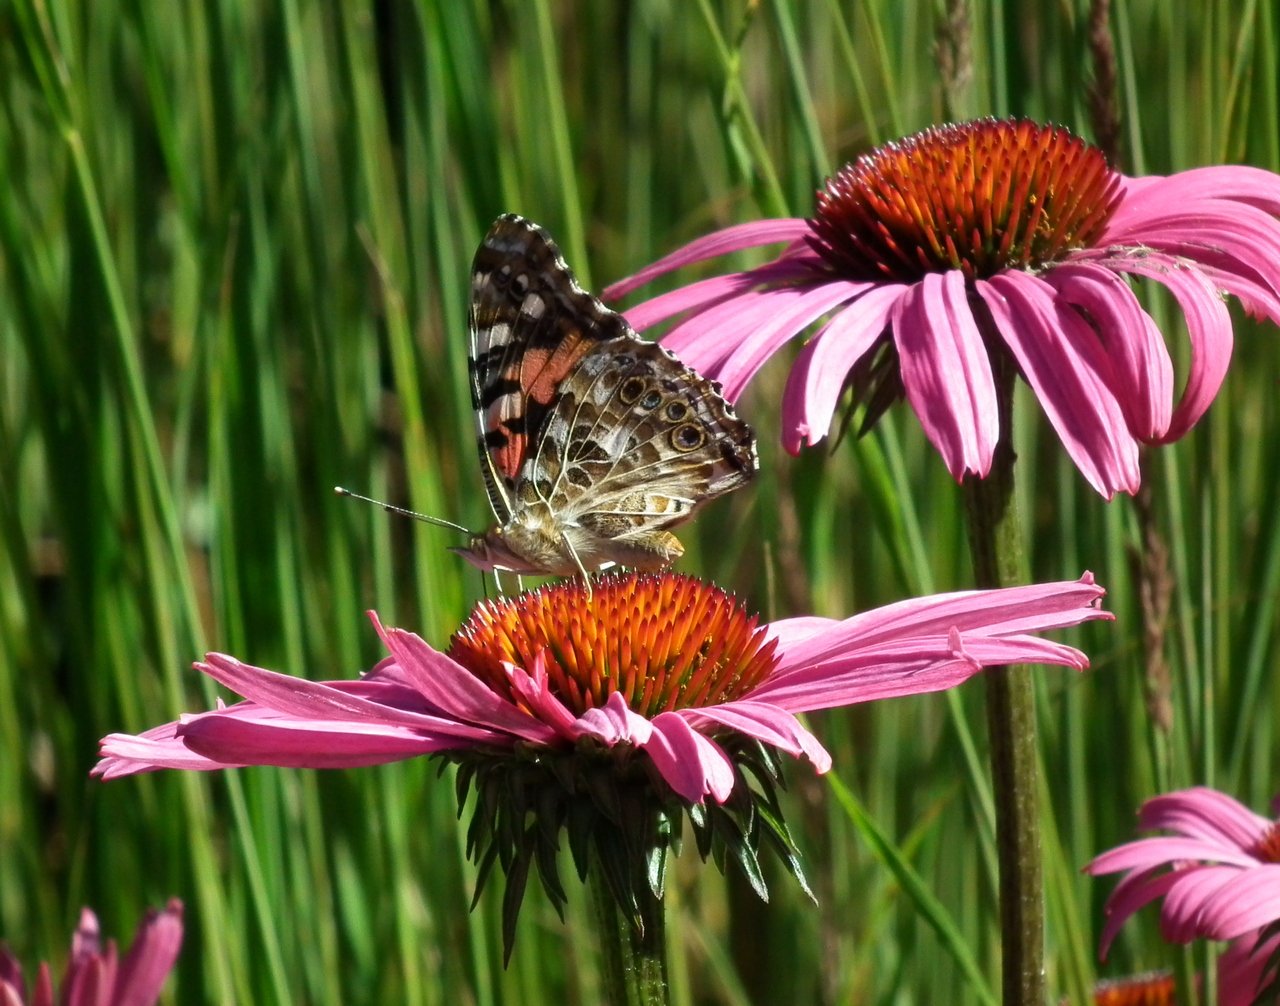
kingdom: Animalia
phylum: Arthropoda
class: Insecta
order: Lepidoptera
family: Nymphalidae
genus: Vanessa
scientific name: Vanessa cardui
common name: Painted Lady
